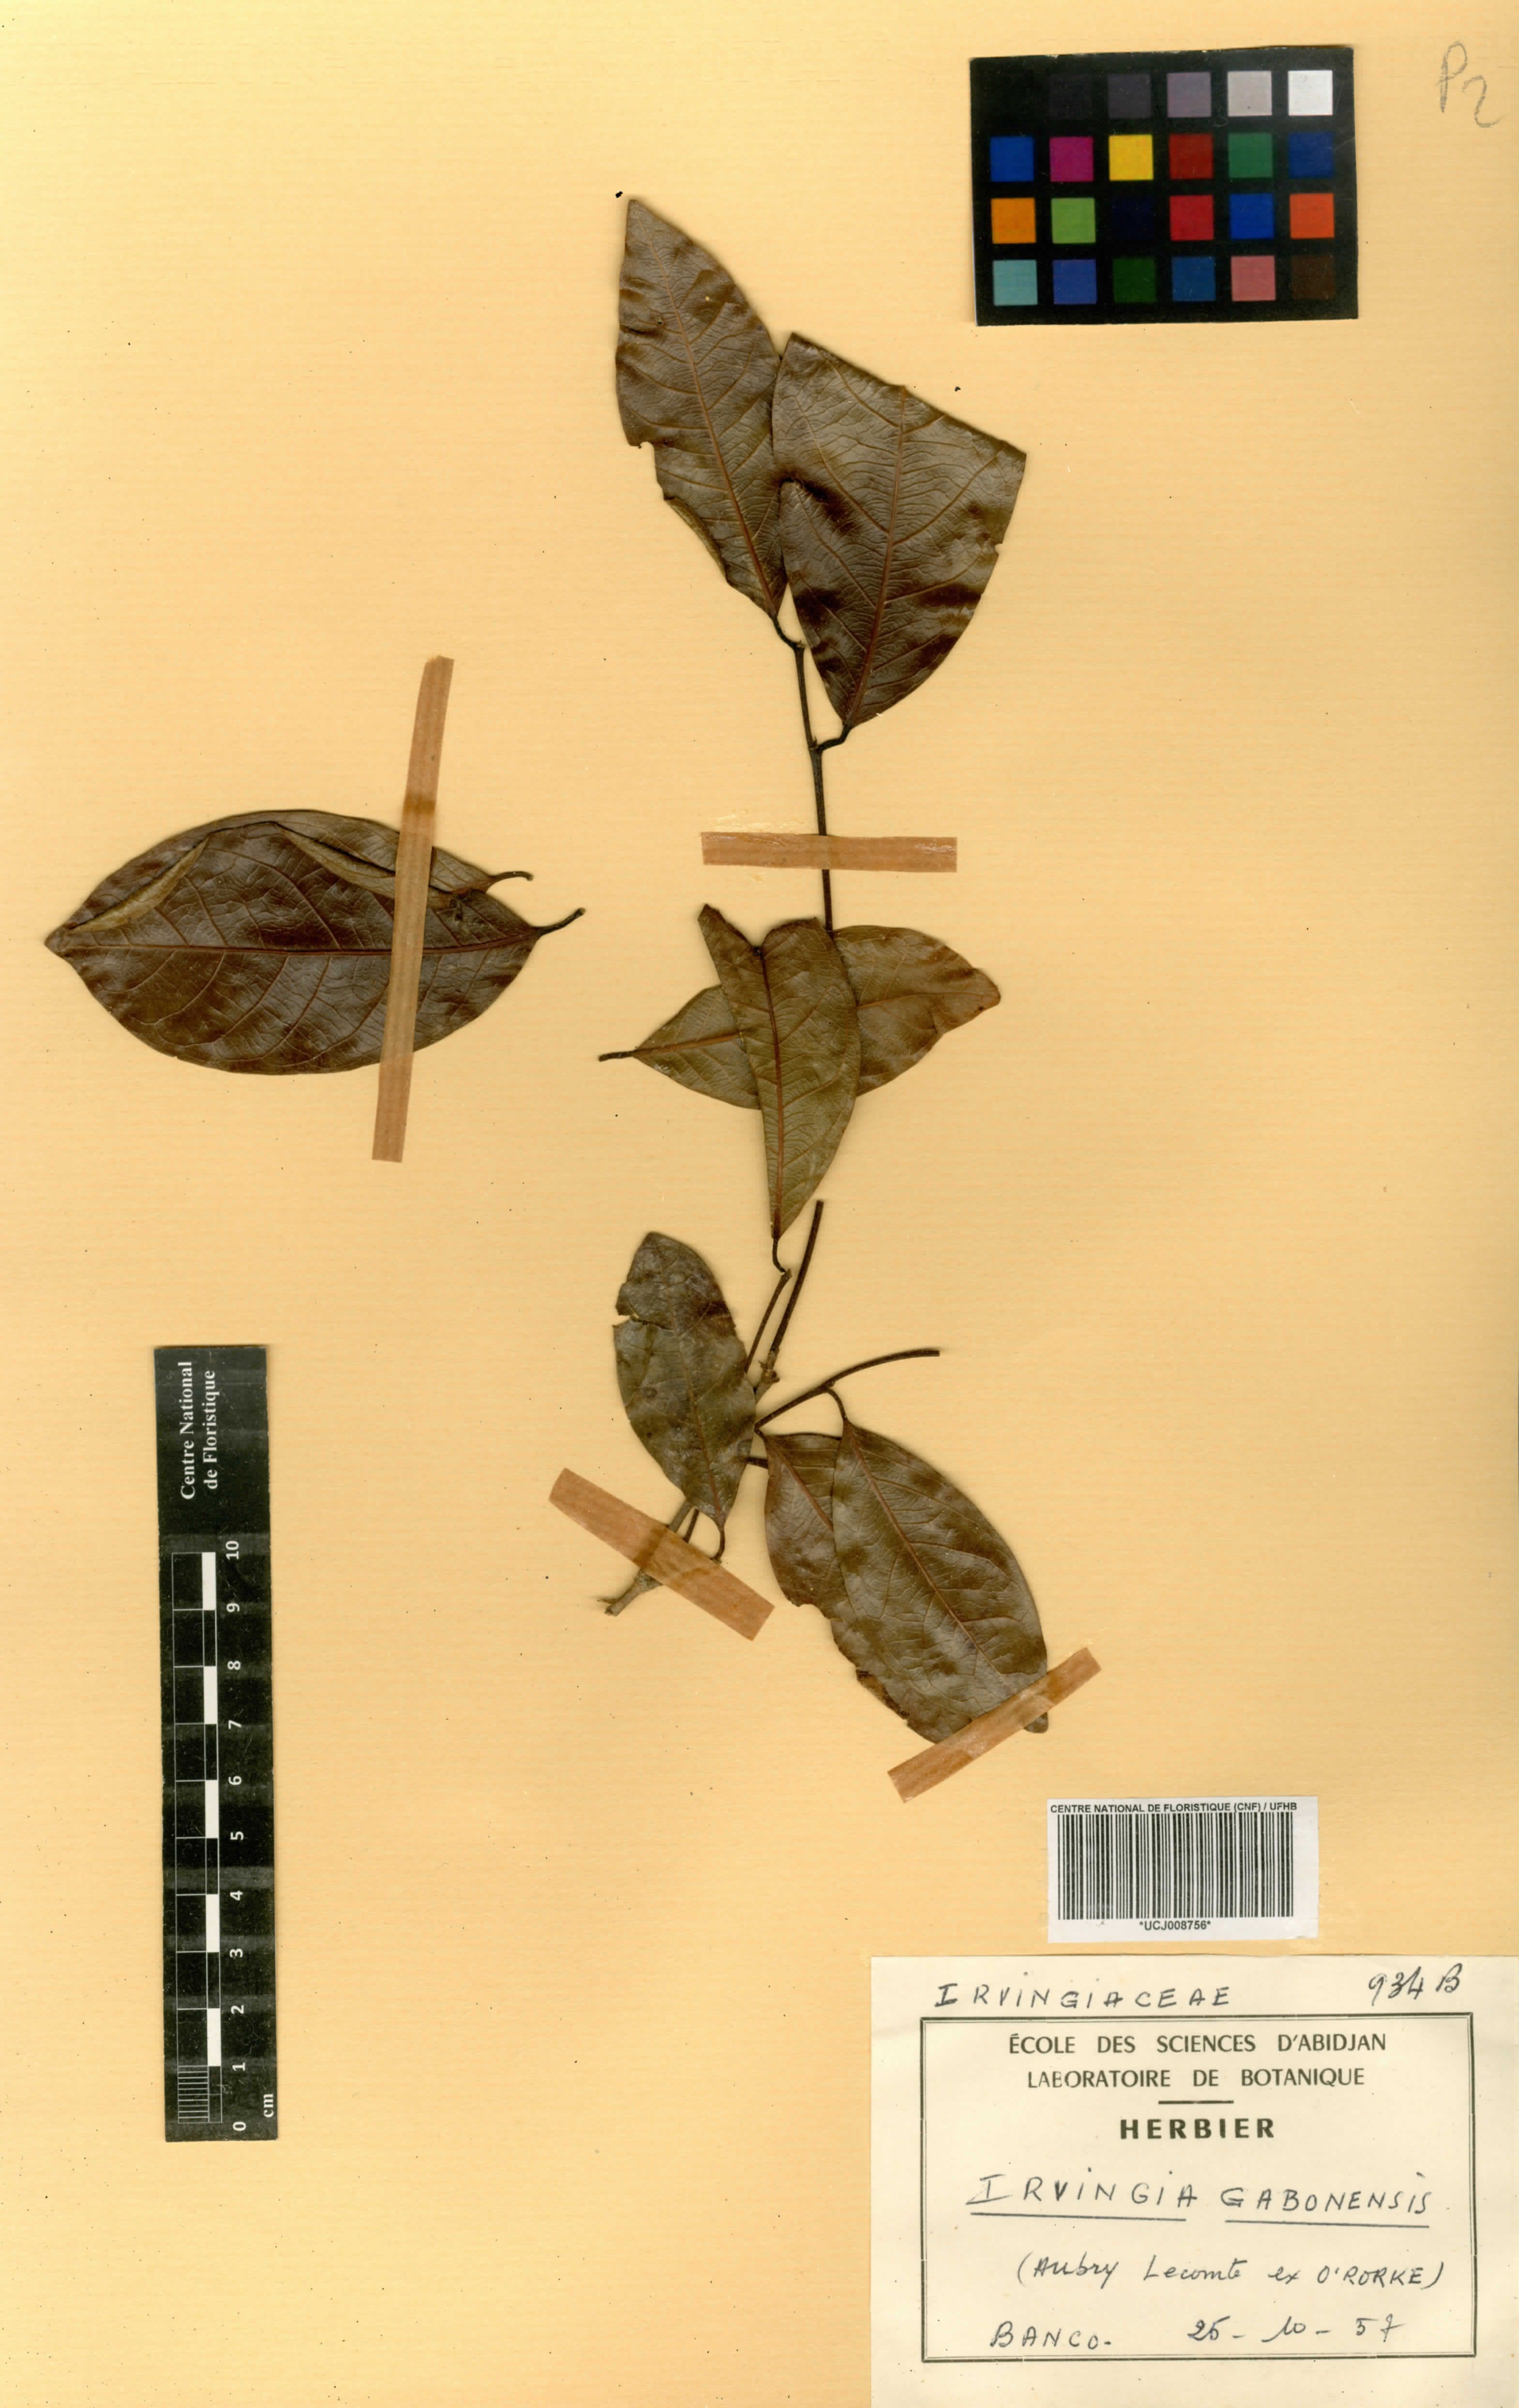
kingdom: Plantae
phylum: Tracheophyta
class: Magnoliopsida
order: Malpighiales
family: Irvingiaceae
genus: Irvingia
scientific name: Irvingia gabonensis
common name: Rainy season bush-mango
